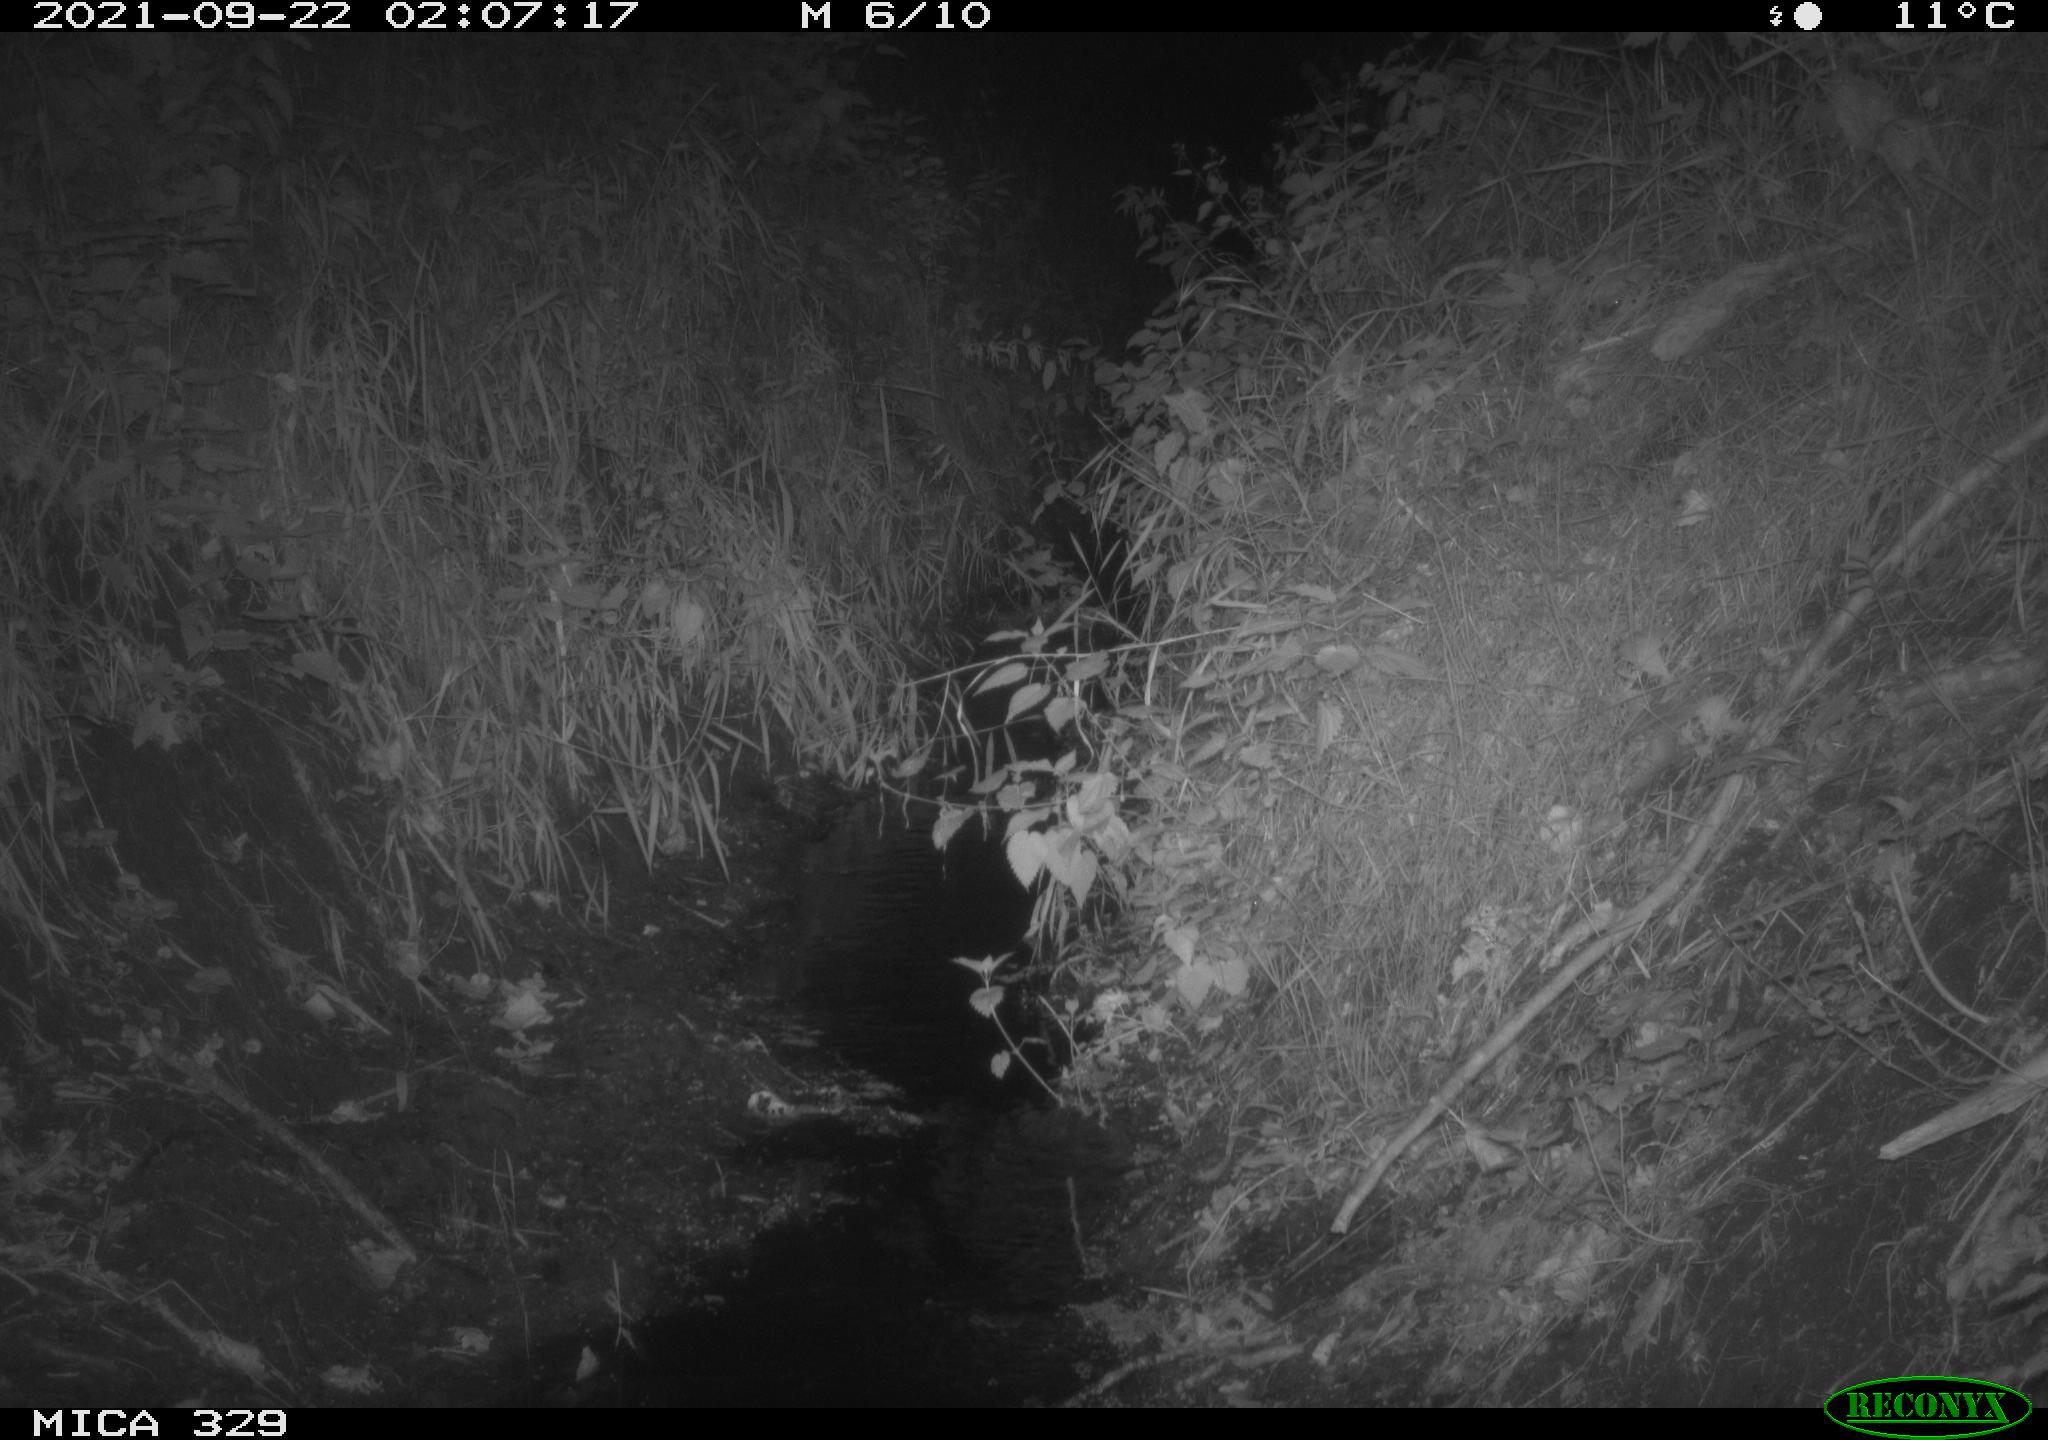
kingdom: Animalia
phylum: Chordata
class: Mammalia
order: Carnivora
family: Canidae
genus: Vulpes
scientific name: Vulpes vulpes
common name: Red fox
